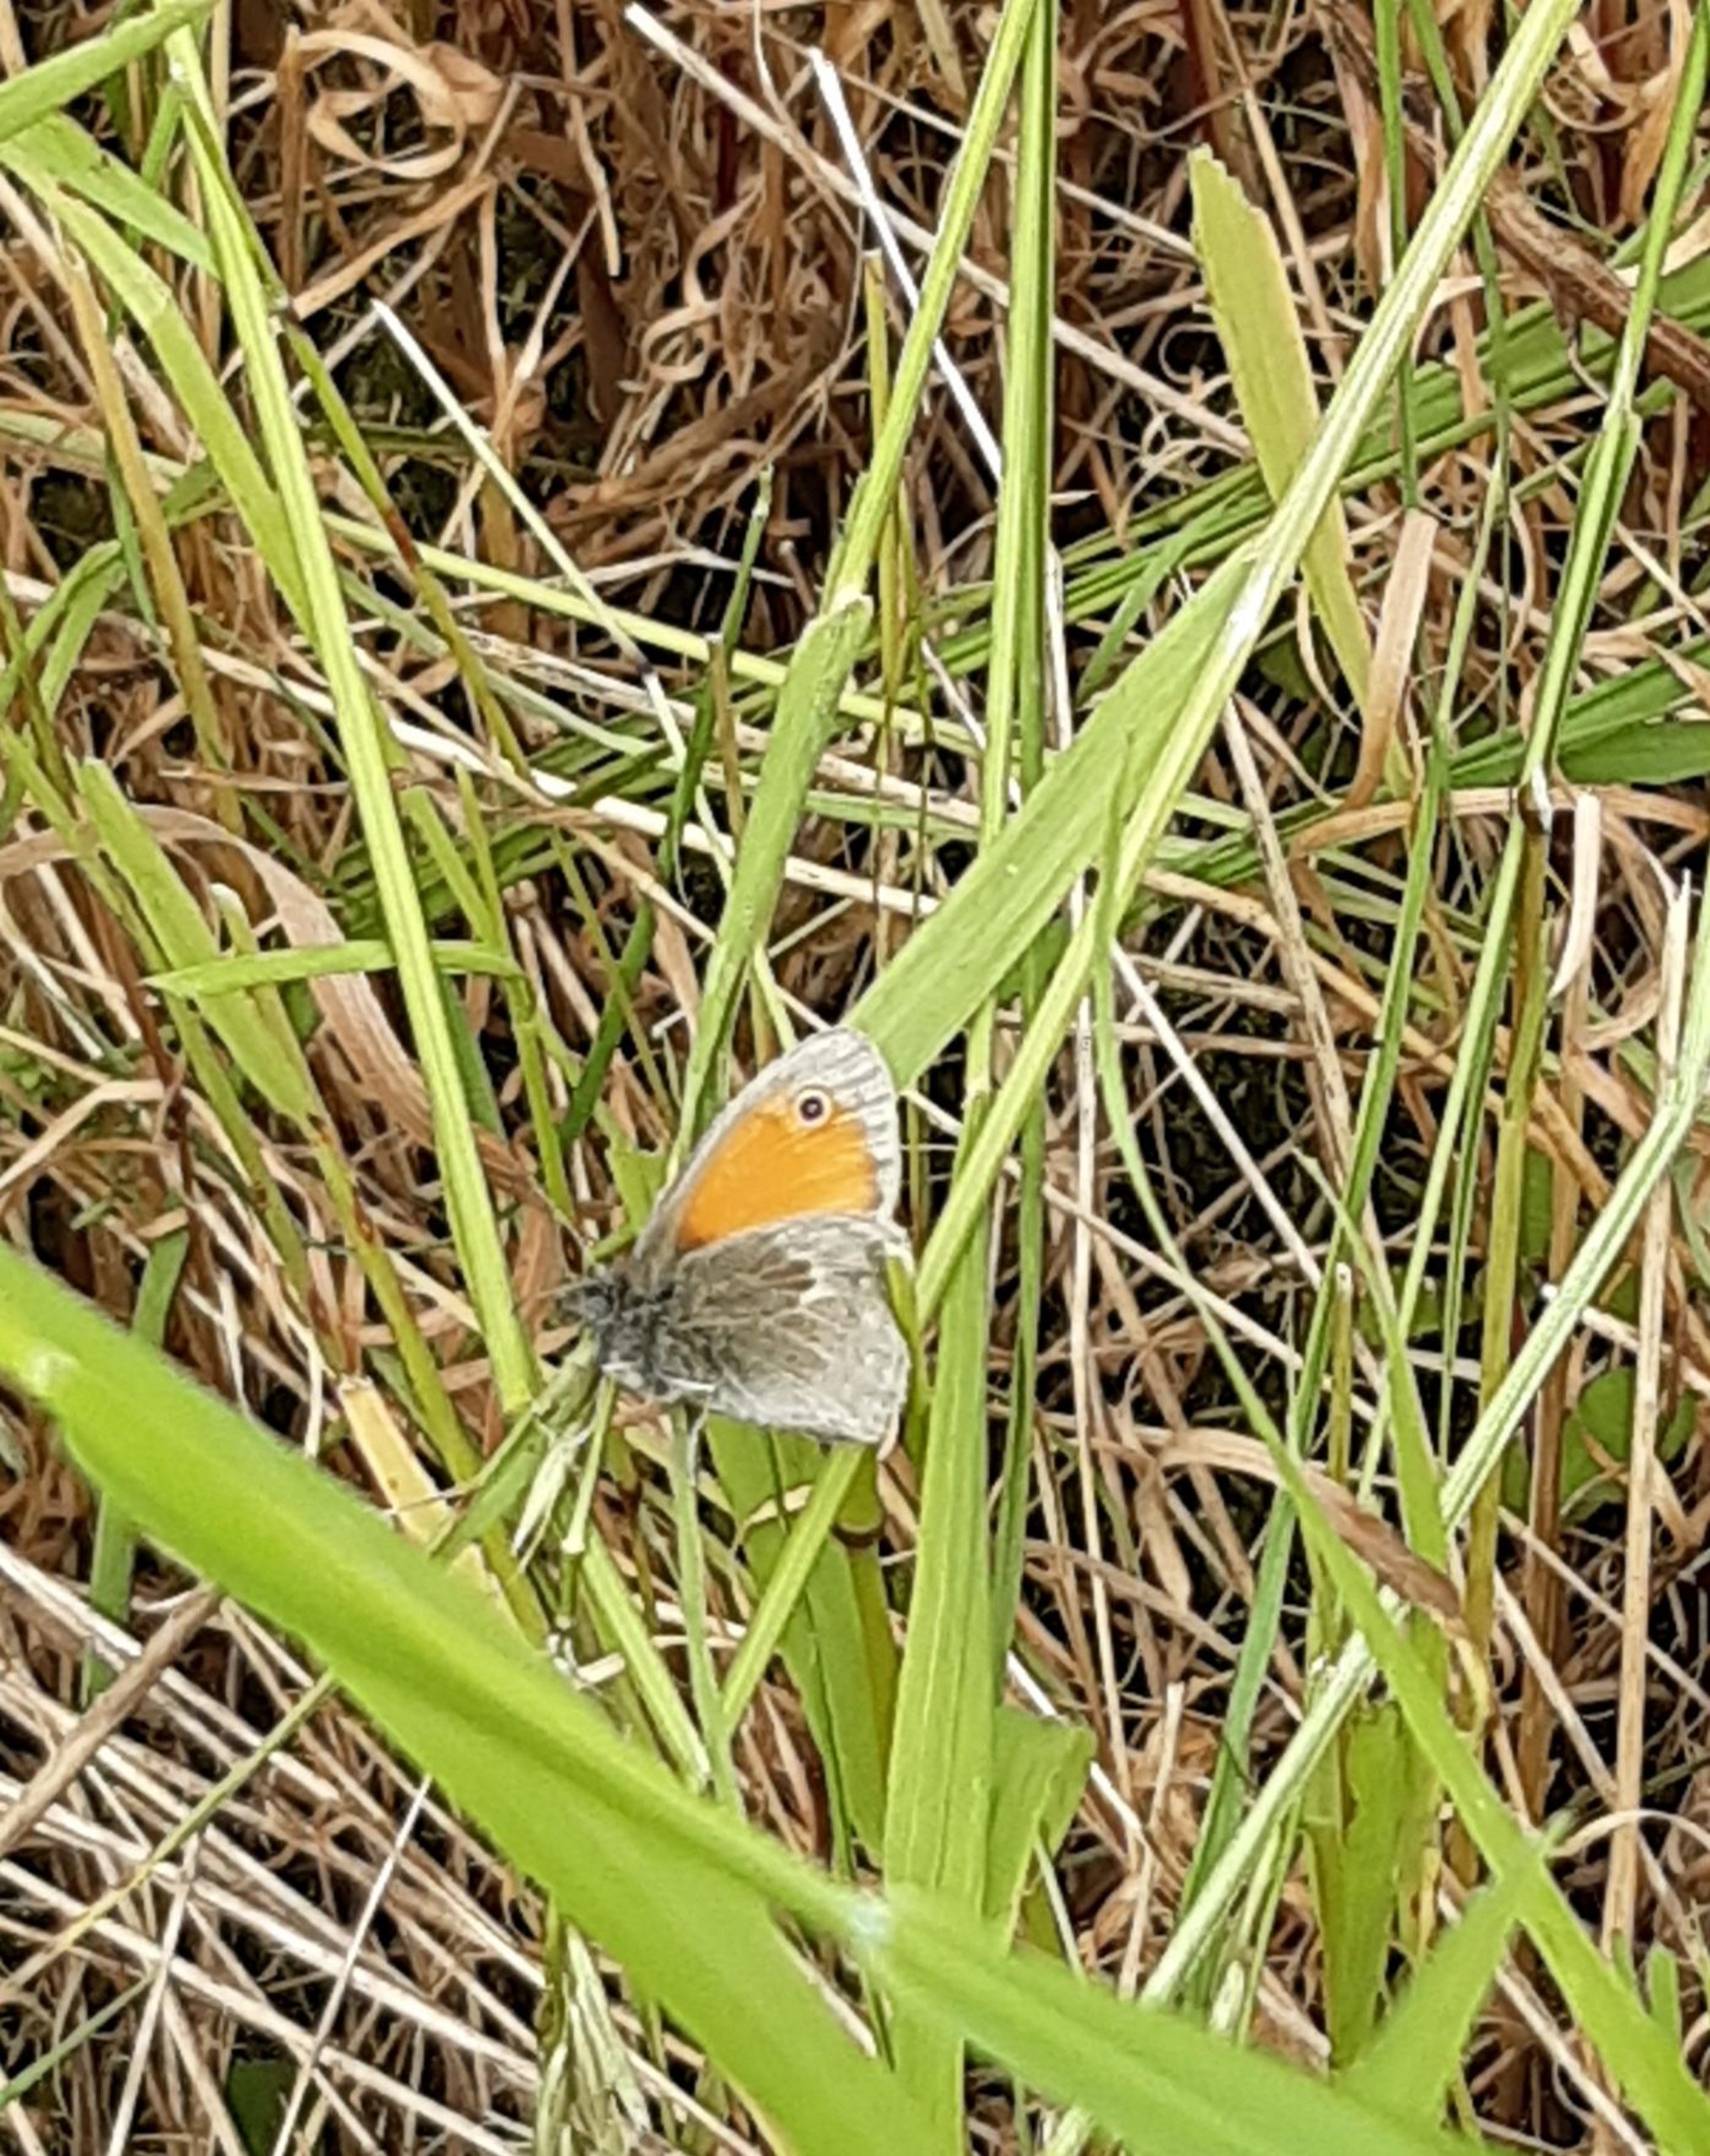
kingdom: Animalia
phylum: Arthropoda
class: Insecta
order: Lepidoptera
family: Nymphalidae
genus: Coenonympha
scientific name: Coenonympha pamphilus
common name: Okkergul randøje
